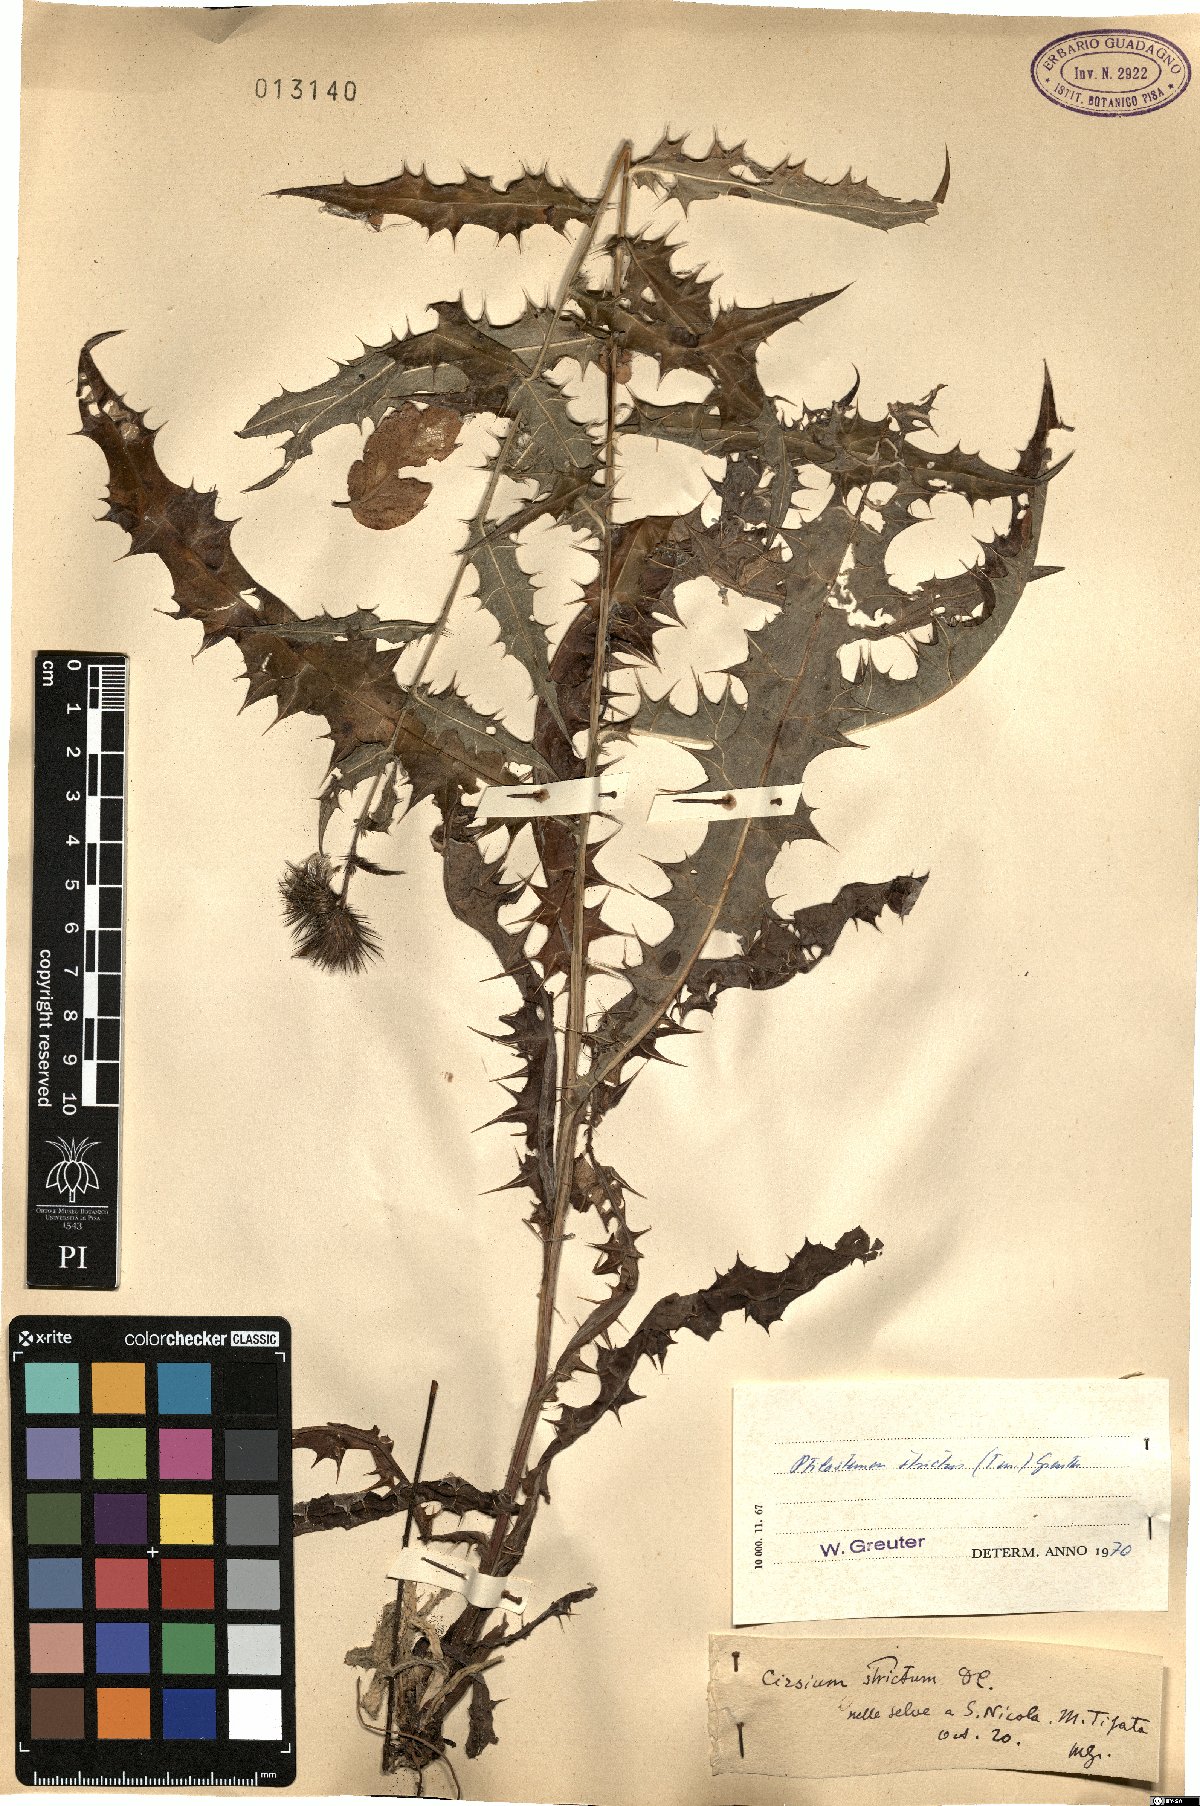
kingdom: Plantae
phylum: Tracheophyta
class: Magnoliopsida
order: Asterales
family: Asteraceae
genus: Ptilostemon
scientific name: Ptilostemon strictus
